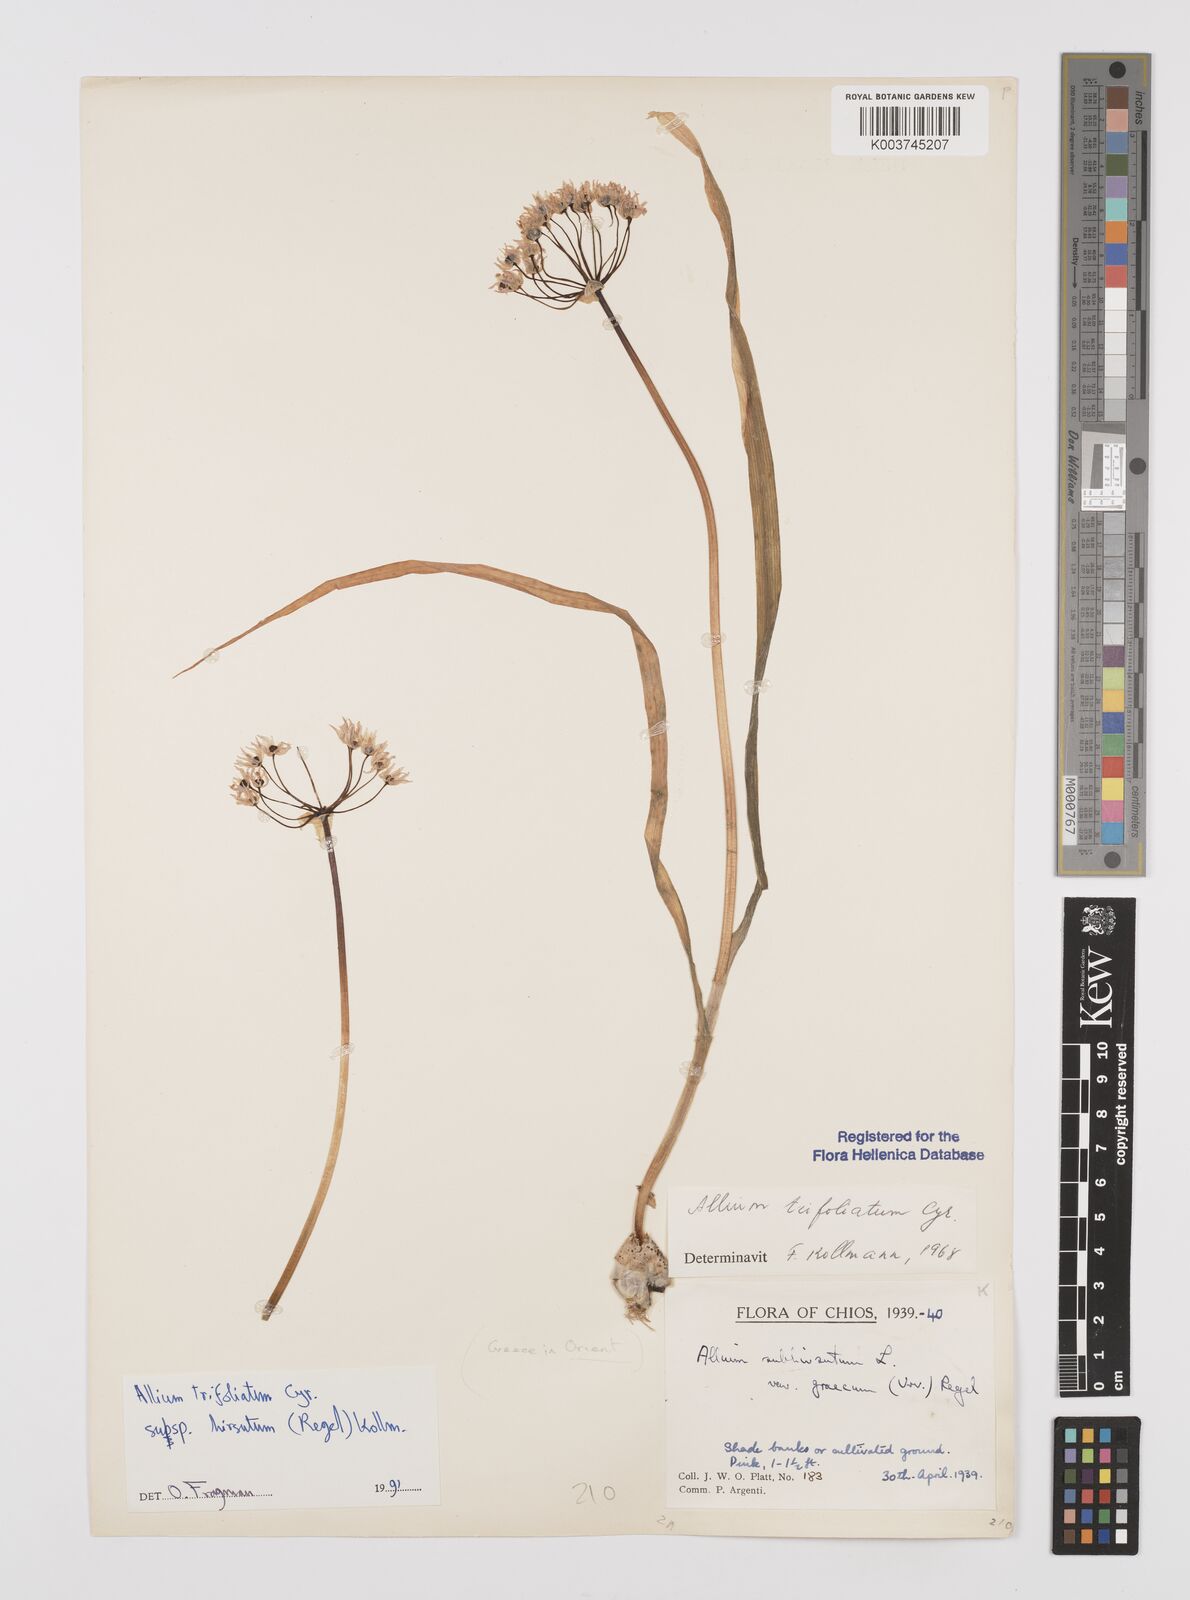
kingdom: Plantae
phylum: Tracheophyta
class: Liliopsida
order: Asparagales
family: Amaryllidaceae
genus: Allium
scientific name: Allium trifoliatum
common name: Pink garlic
